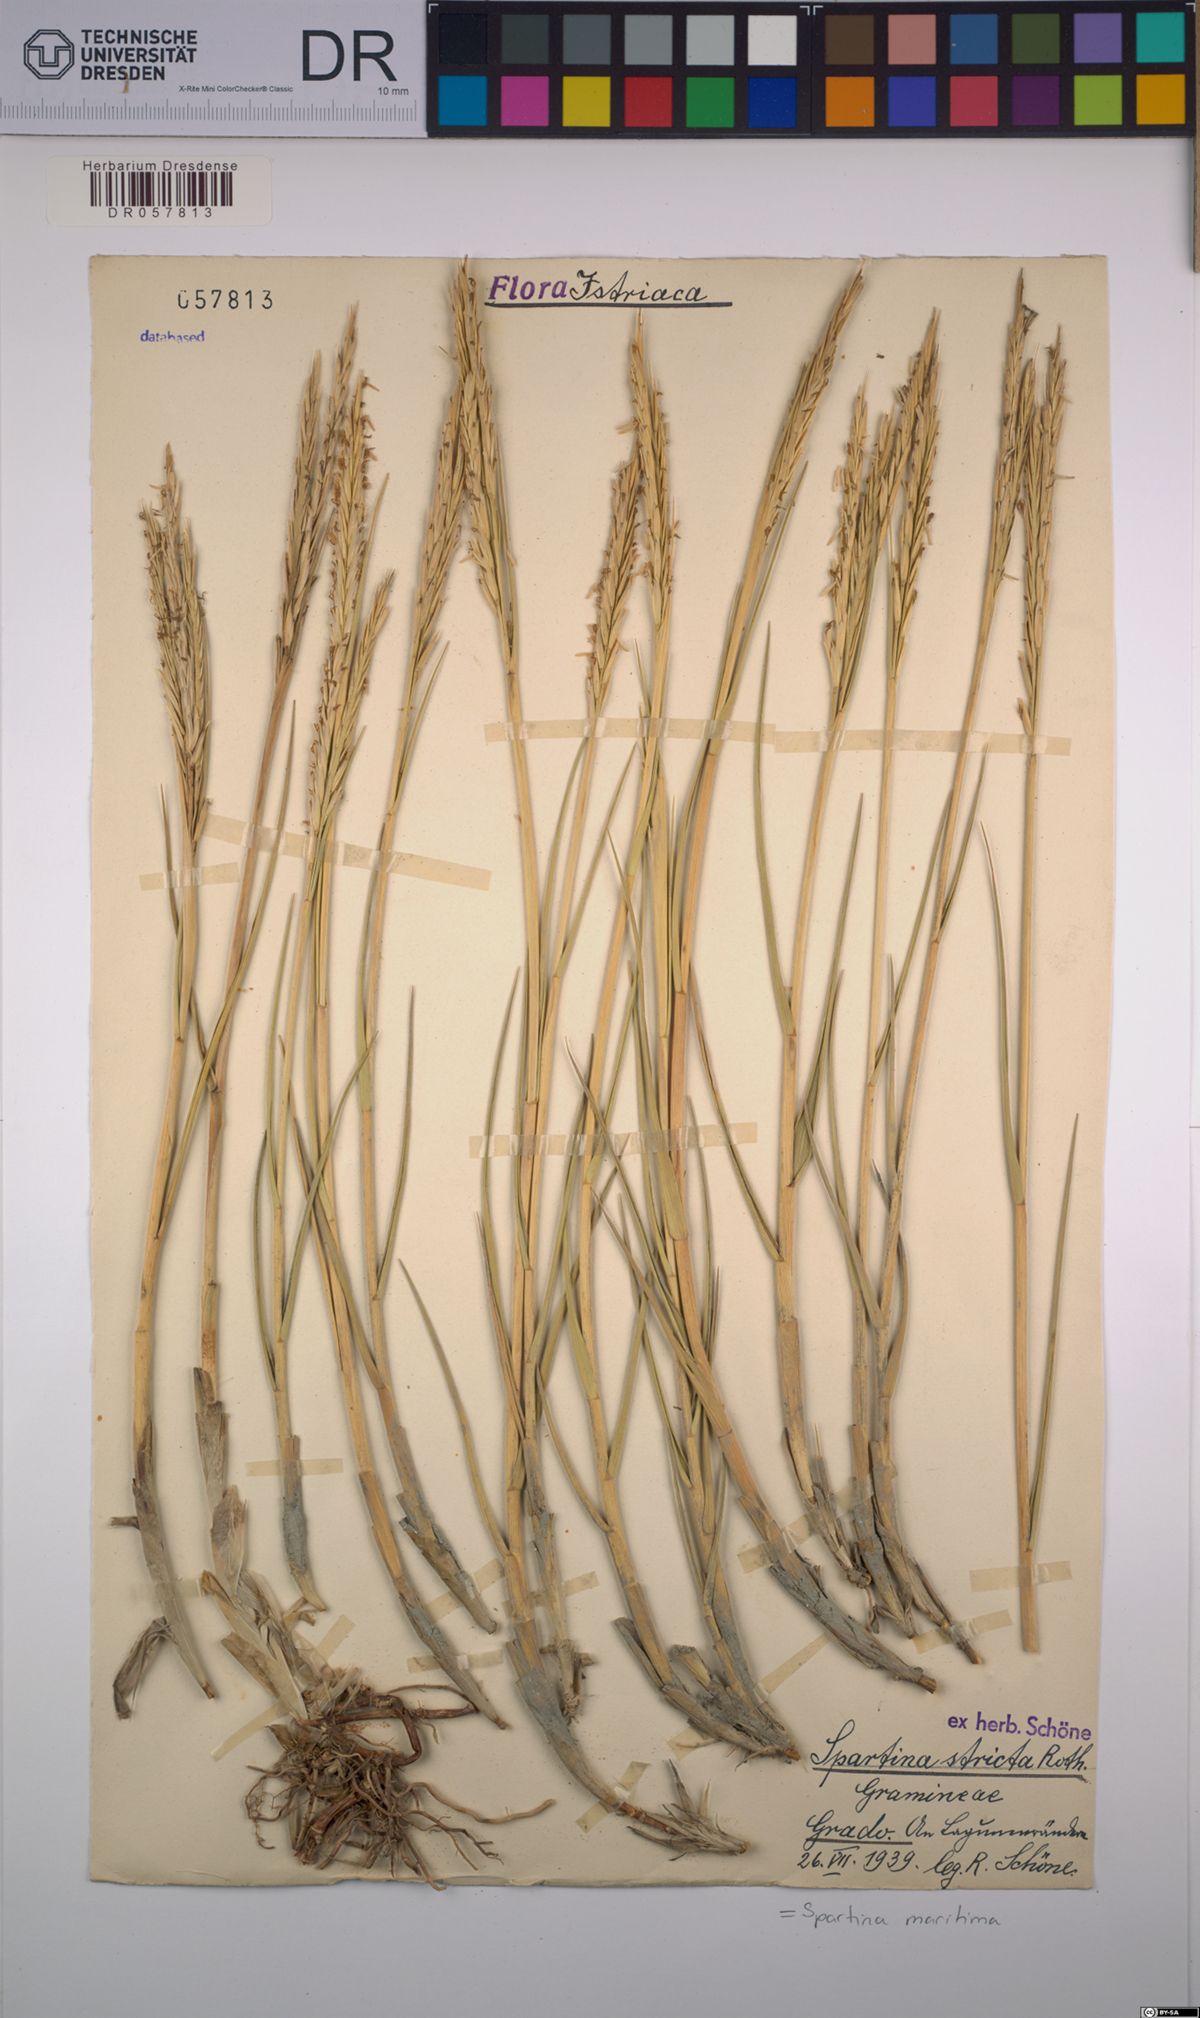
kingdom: Plantae
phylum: Tracheophyta
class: Liliopsida
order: Poales
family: Poaceae
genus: Sporobolus
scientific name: Sporobolus maritimus
